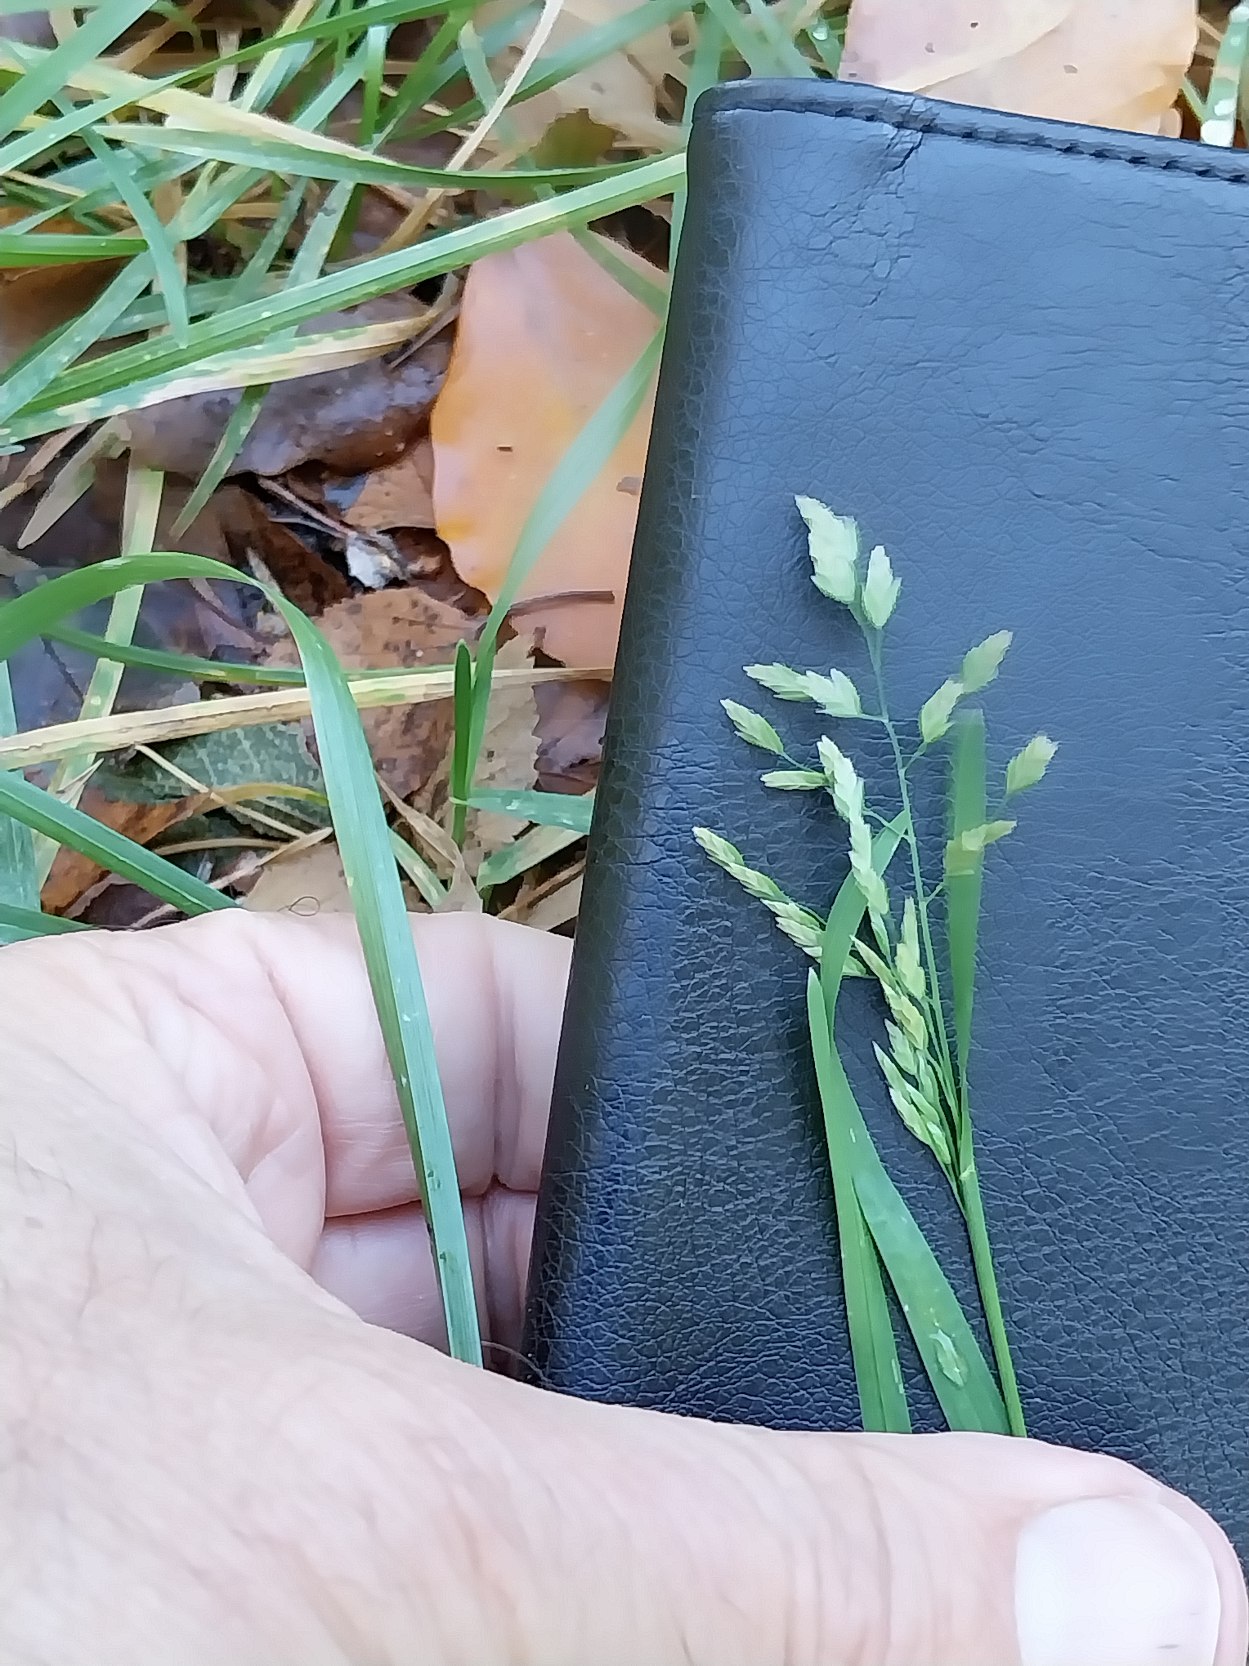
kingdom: Plantae
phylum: Tracheophyta
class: Liliopsida
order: Poales
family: Poaceae
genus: Poa
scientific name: Poa annua
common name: Enårig rapgræs
